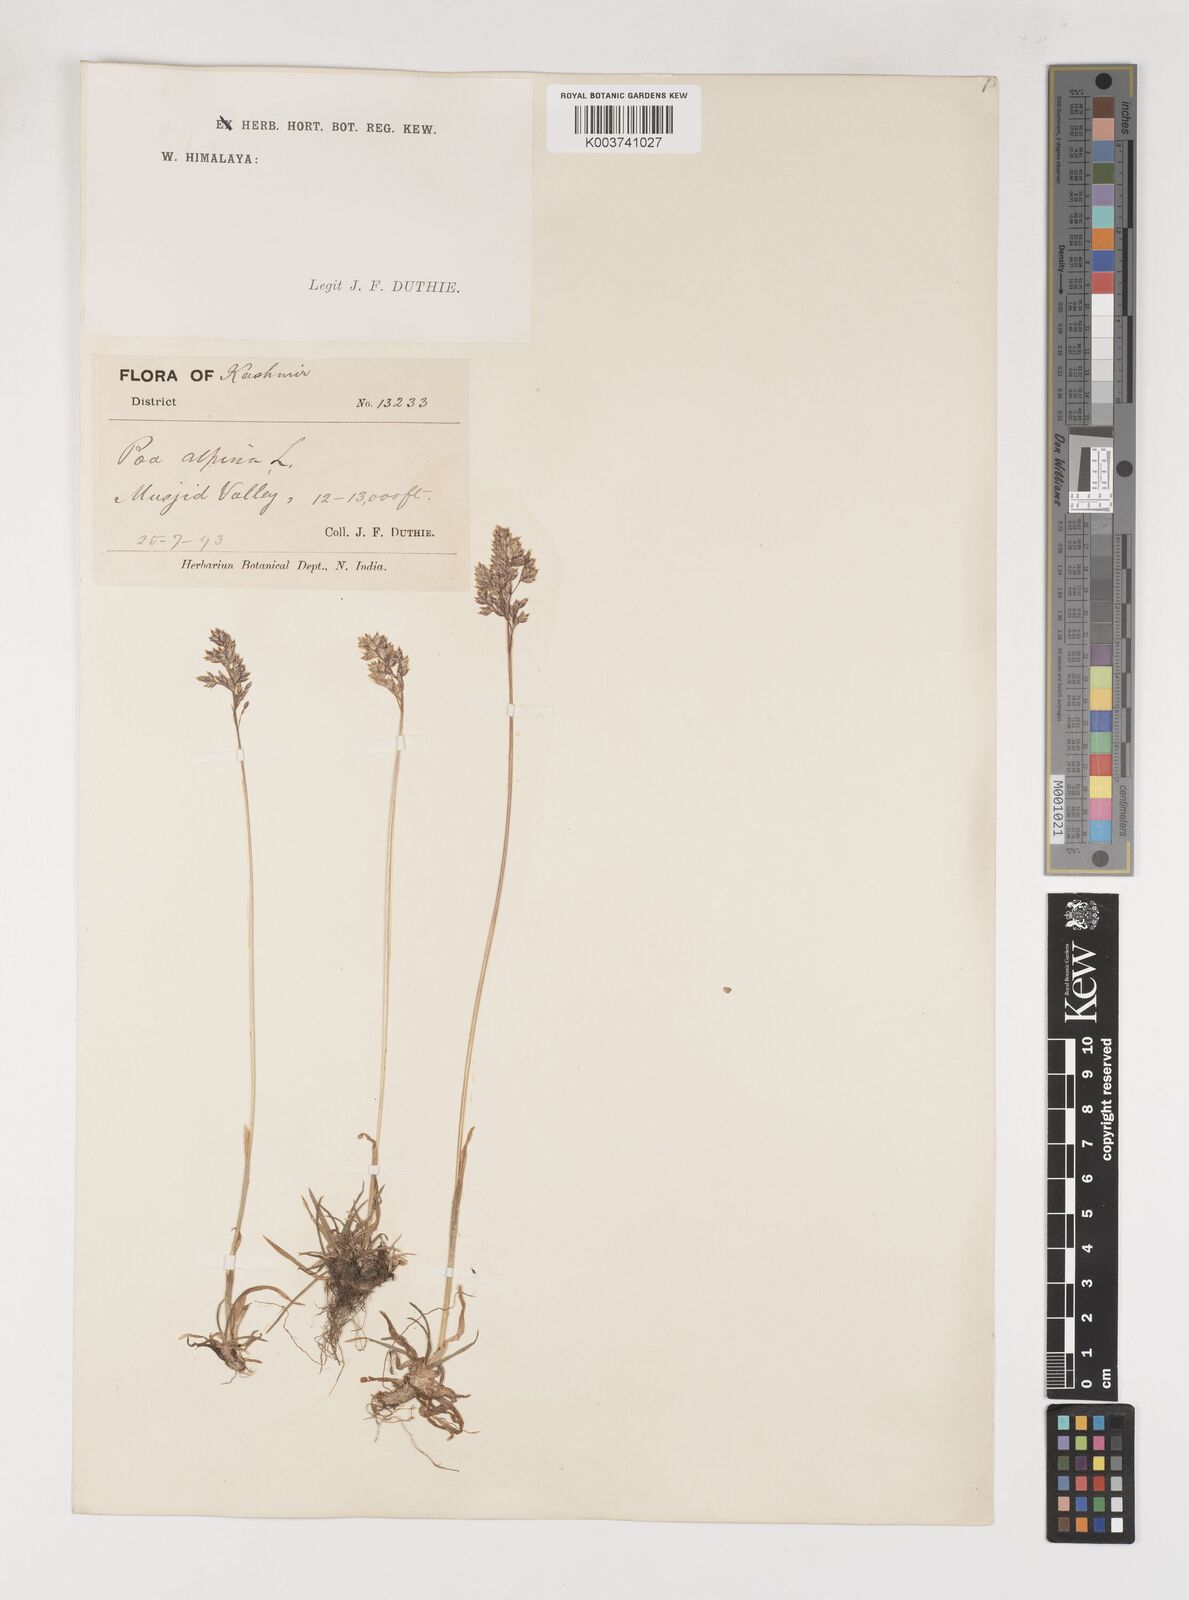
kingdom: Plantae
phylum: Tracheophyta
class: Liliopsida
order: Poales
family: Poaceae
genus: Poa
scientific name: Poa alpina
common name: Alpine bluegrass
